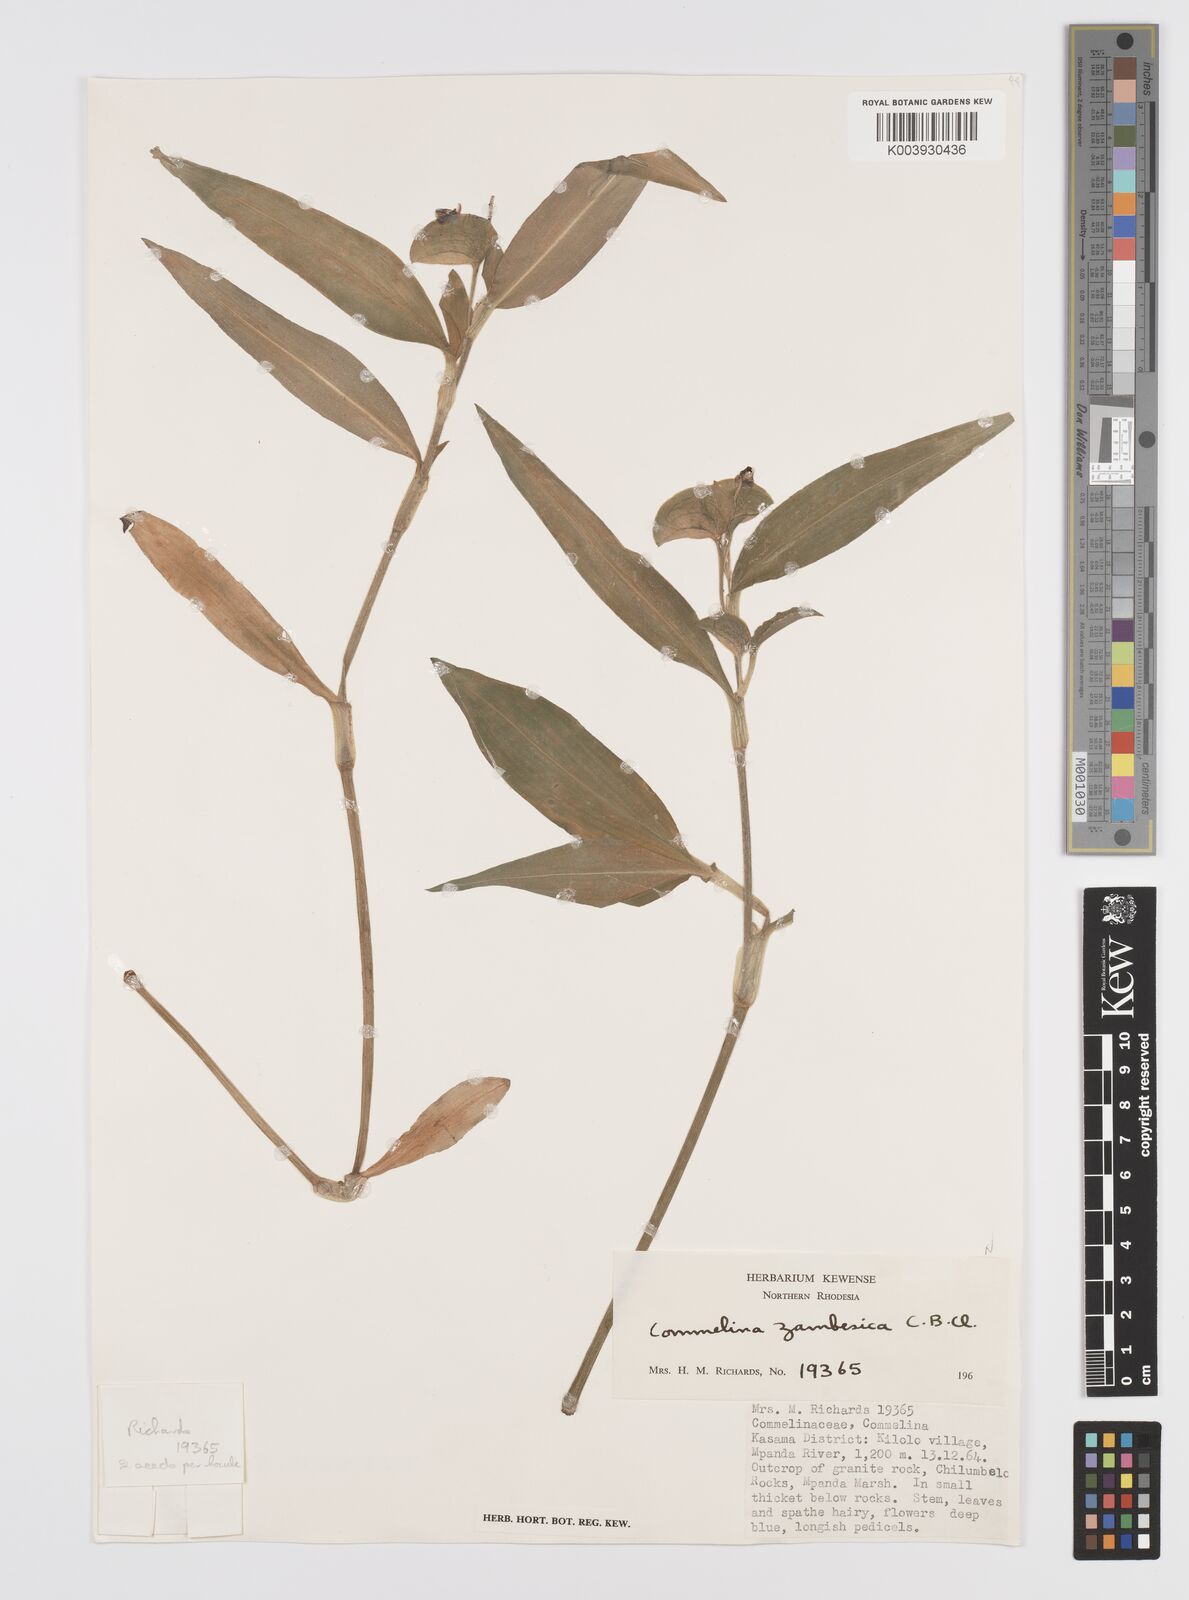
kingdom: Plantae
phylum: Tracheophyta
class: Liliopsida
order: Commelinales
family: Commelinaceae
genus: Commelina
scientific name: Commelina zambesica
